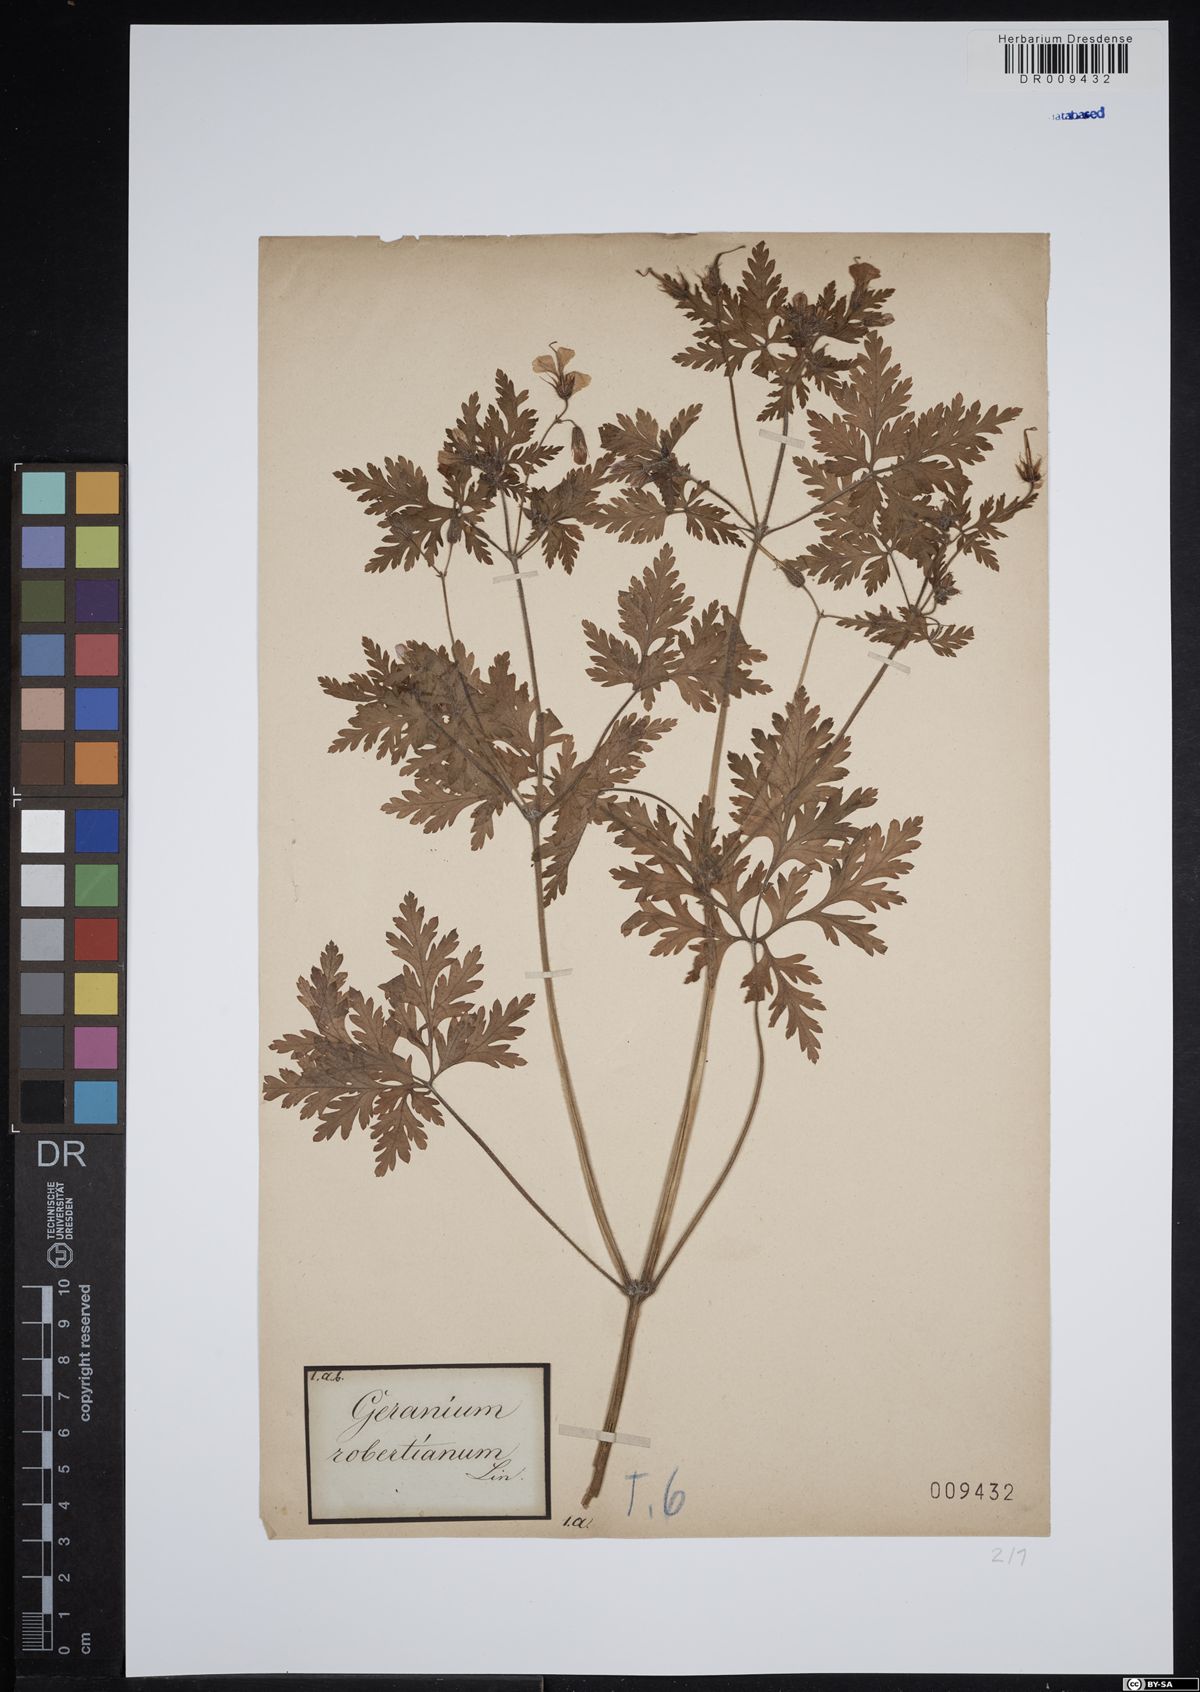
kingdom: Plantae
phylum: Tracheophyta
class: Magnoliopsida
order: Geraniales
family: Geraniaceae
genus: Geranium
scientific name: Geranium robertianum
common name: Herb-robert
